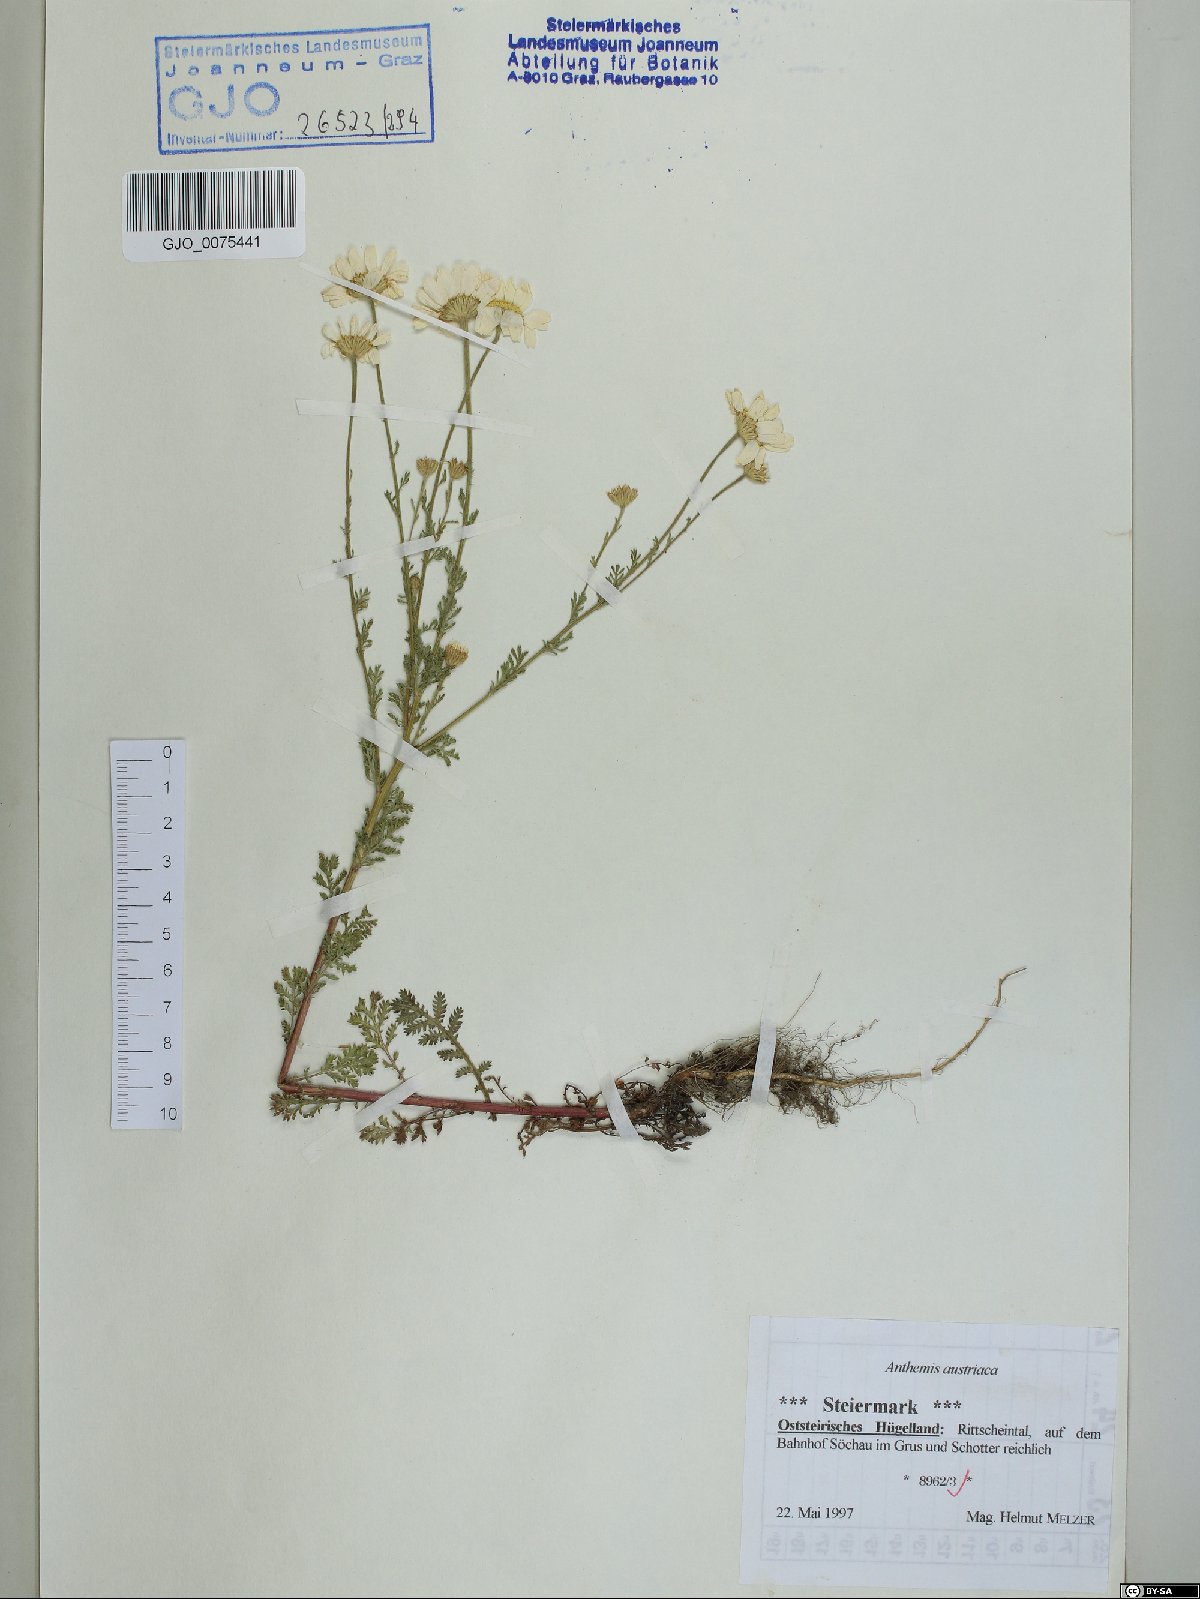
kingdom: Plantae
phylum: Tracheophyta
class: Magnoliopsida
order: Asterales
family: Asteraceae
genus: Cota
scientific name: Cota austriaca
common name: Austrian chamomile
